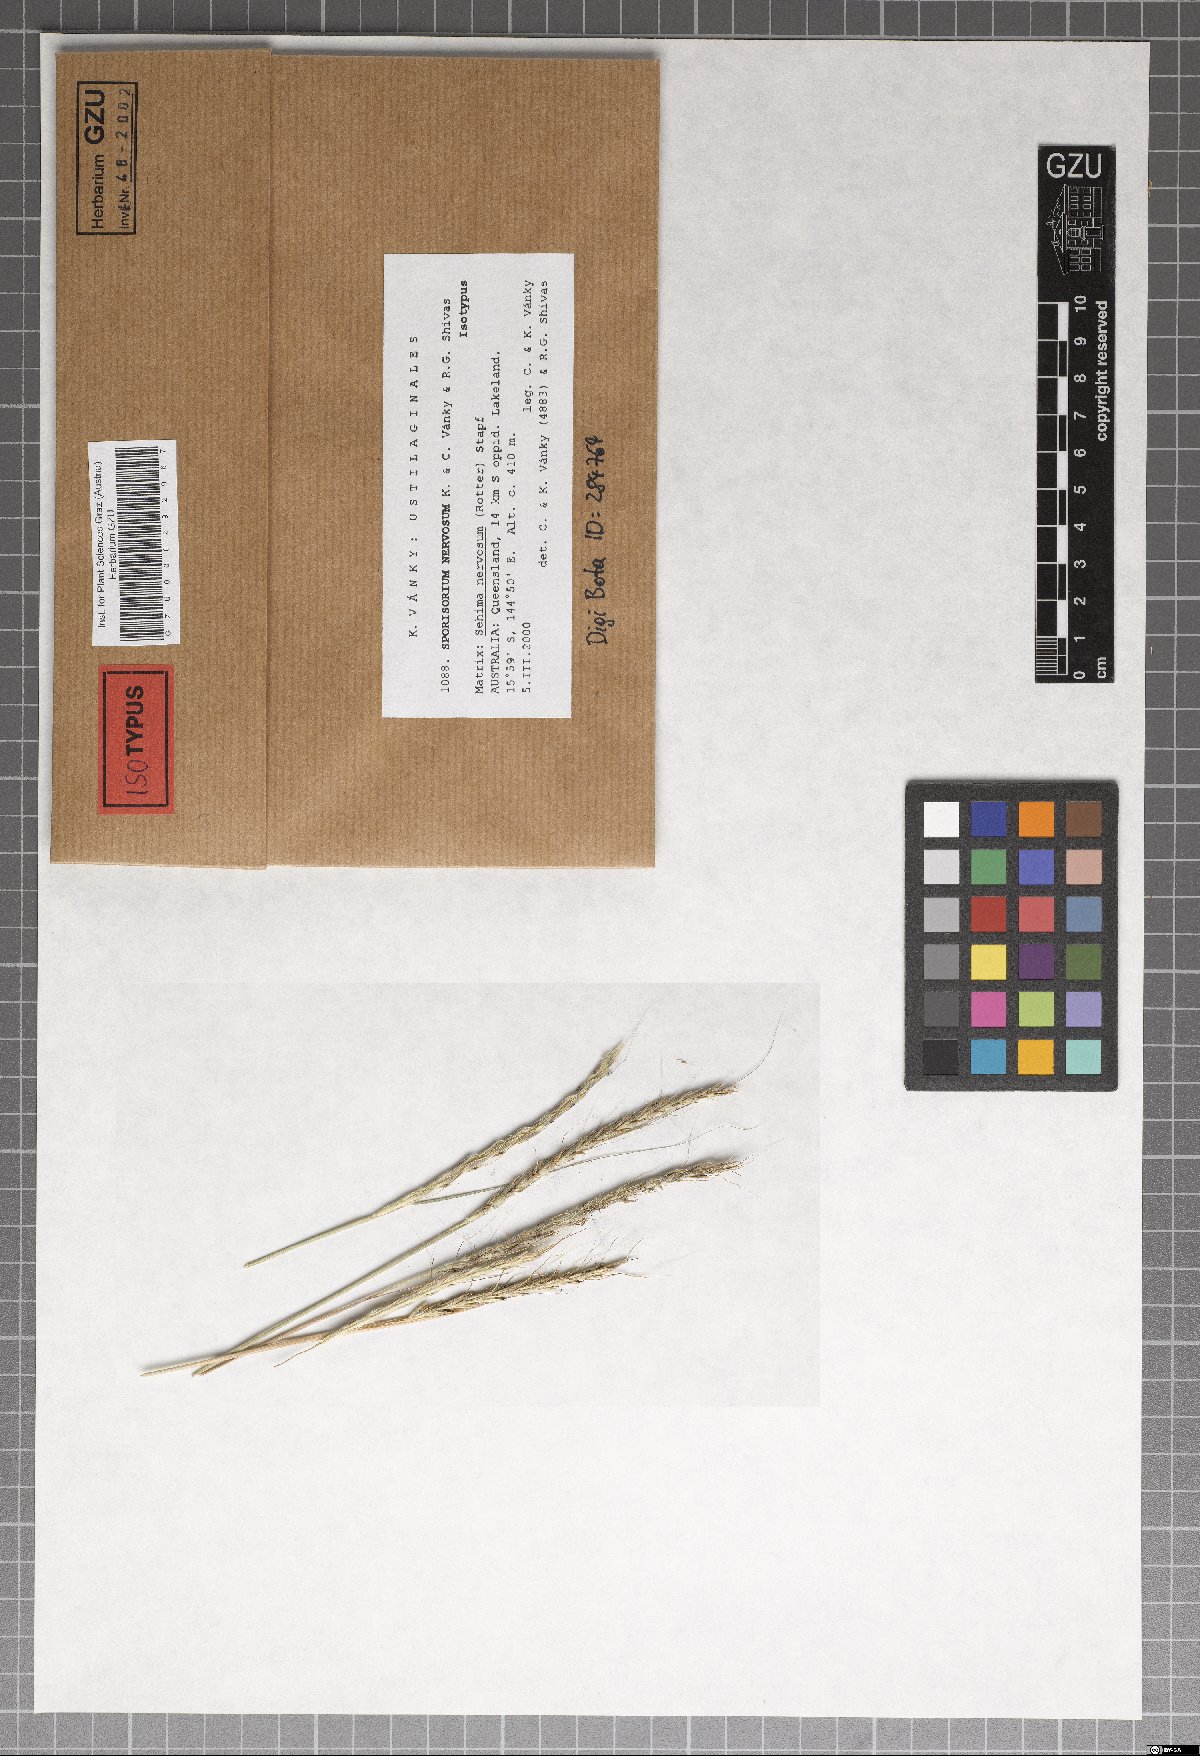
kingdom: Fungi
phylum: Basidiomycota
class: Ustilaginomycetes
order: Ustilaginales
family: Ustilaginaceae
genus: Sporisorium
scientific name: Sporisorium nervosum
